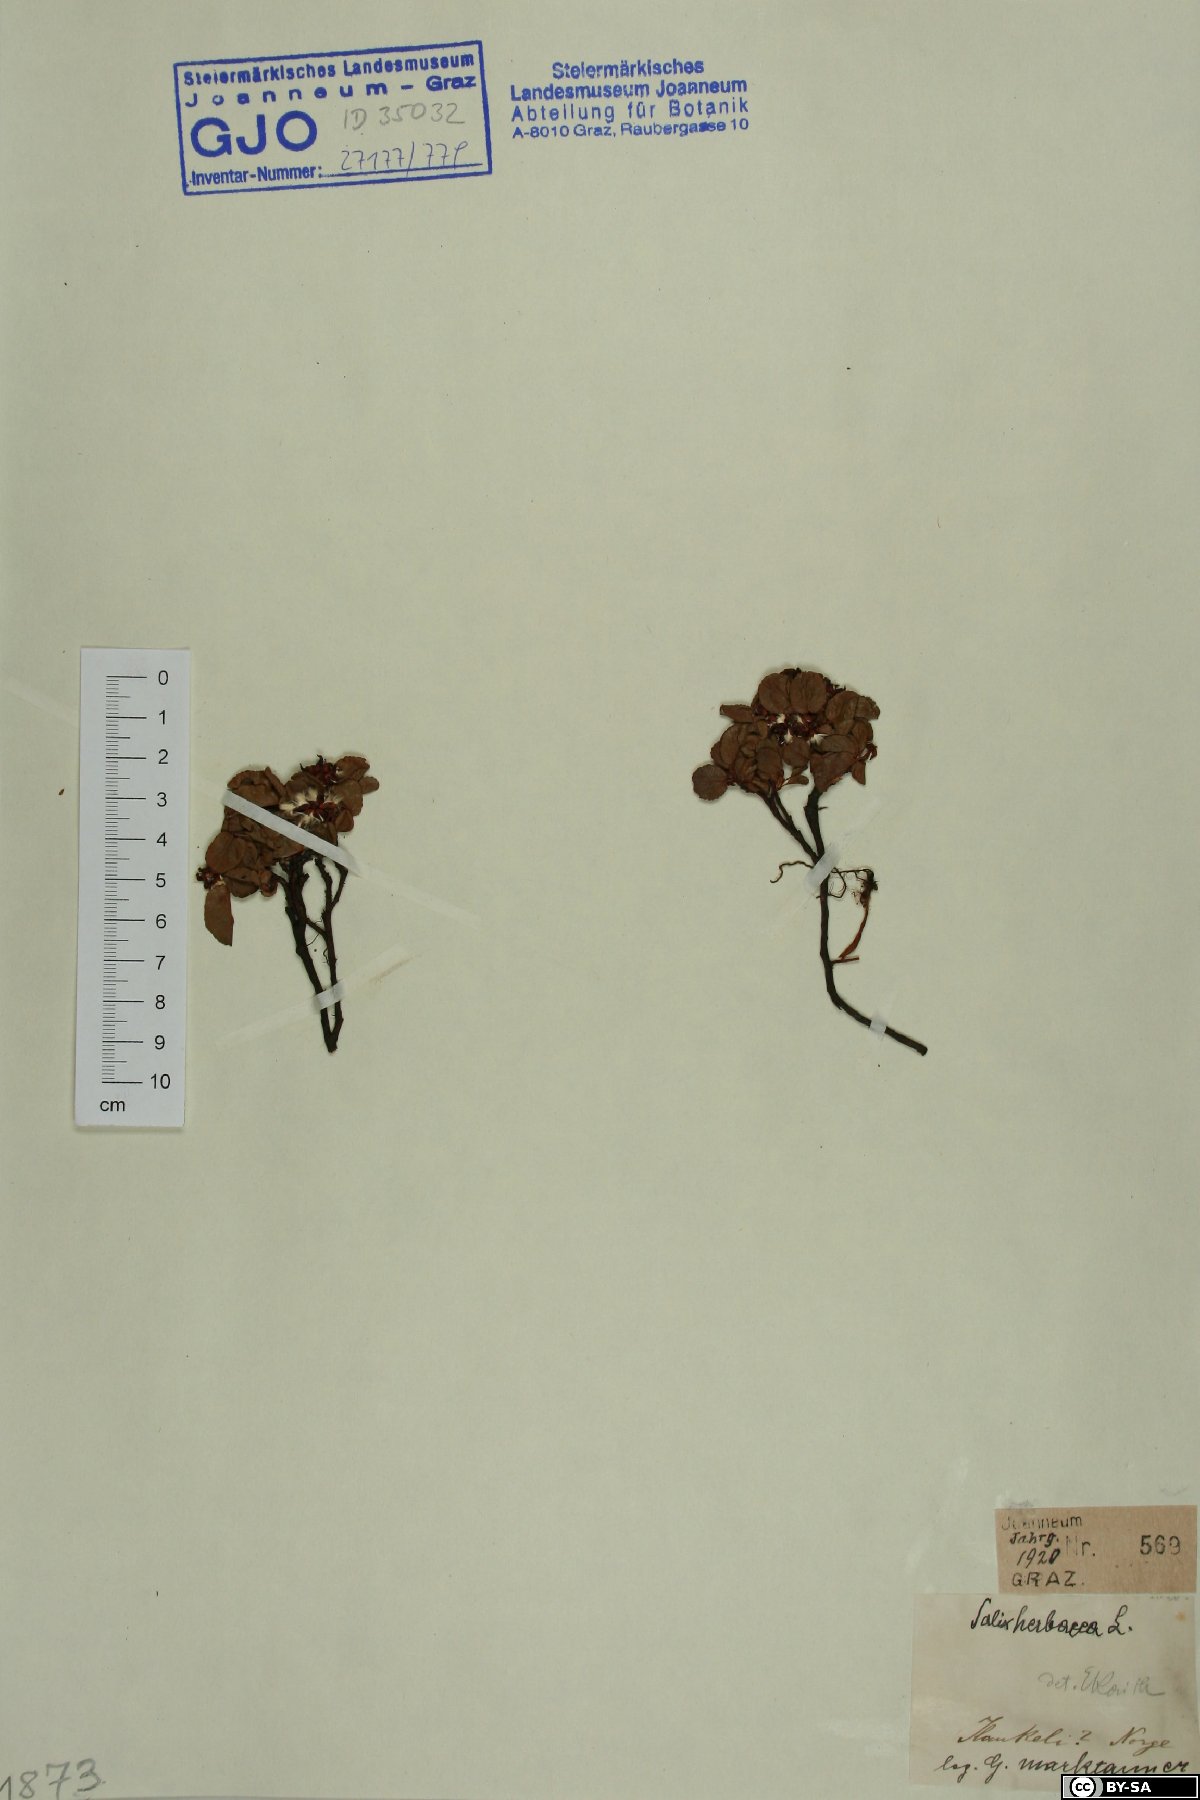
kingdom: Plantae
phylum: Tracheophyta
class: Magnoliopsida
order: Malpighiales
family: Salicaceae
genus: Salix
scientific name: Salix herbacea
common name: Dwarf willow
